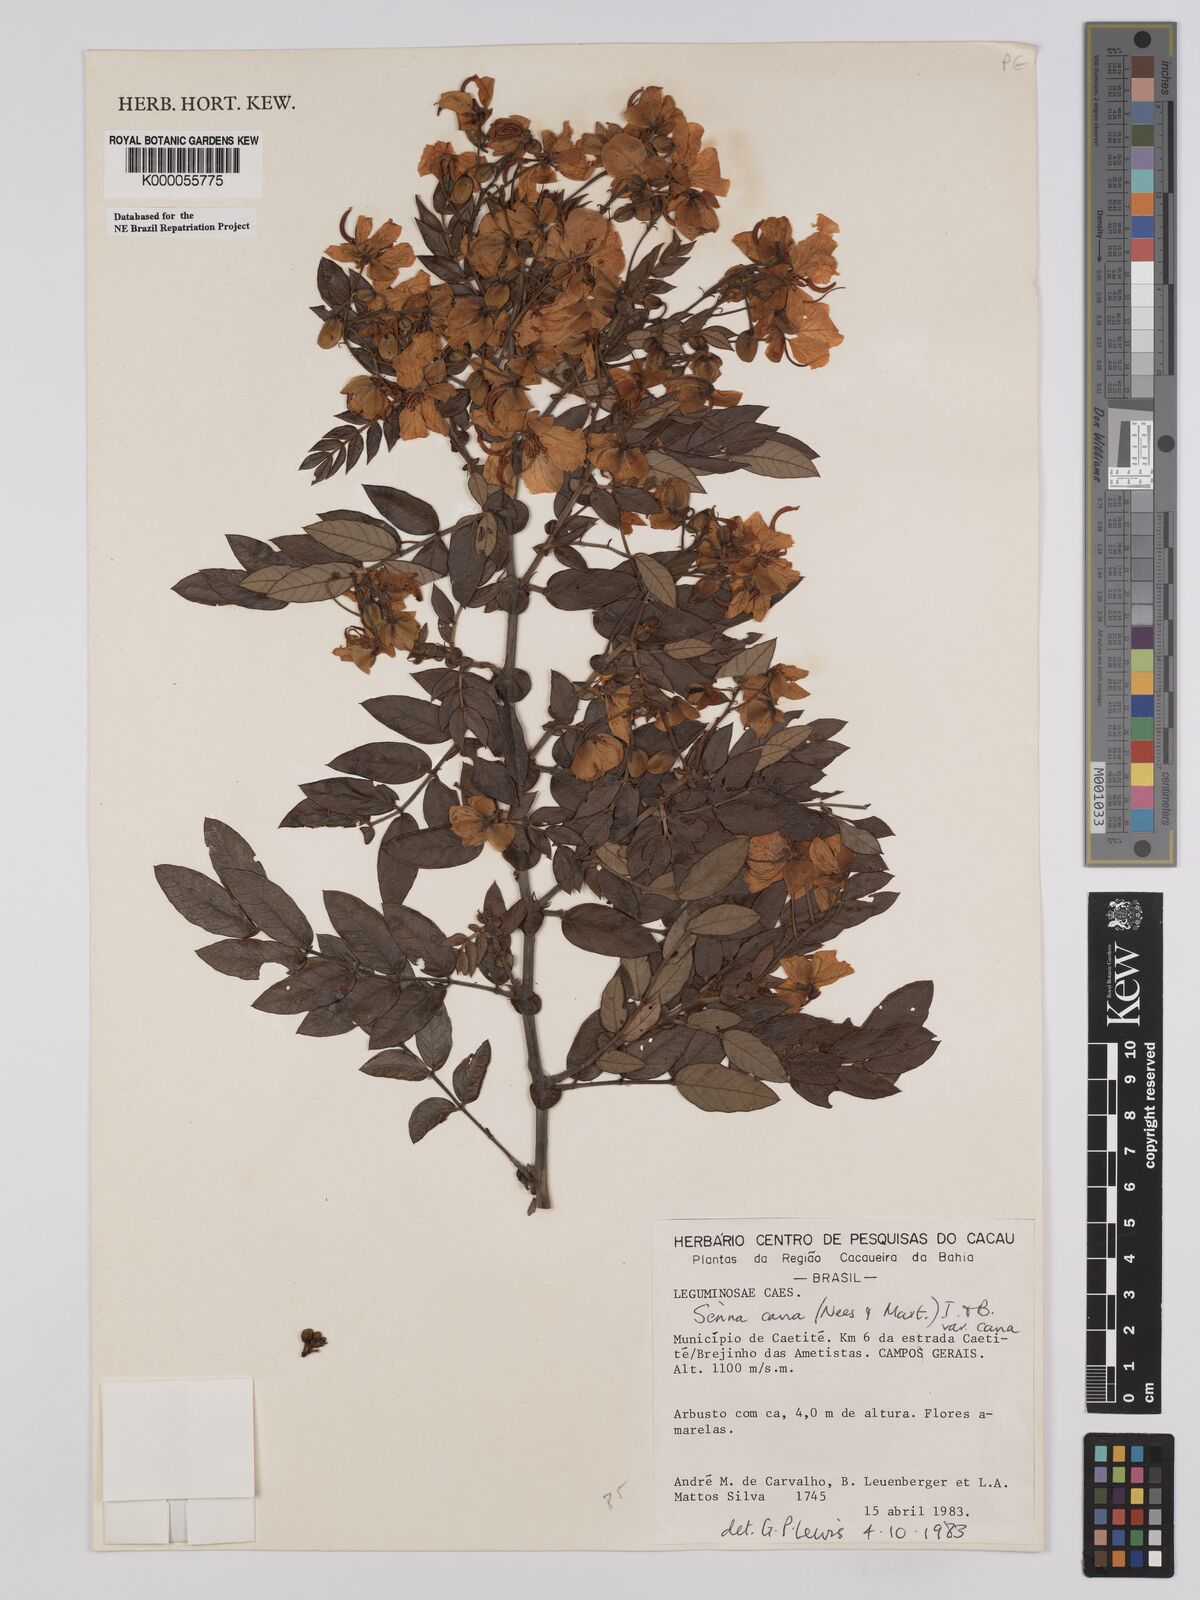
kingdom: Plantae
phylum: Tracheophyta
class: Magnoliopsida
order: Fabales
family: Fabaceae
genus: Senna
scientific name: Senna cana
